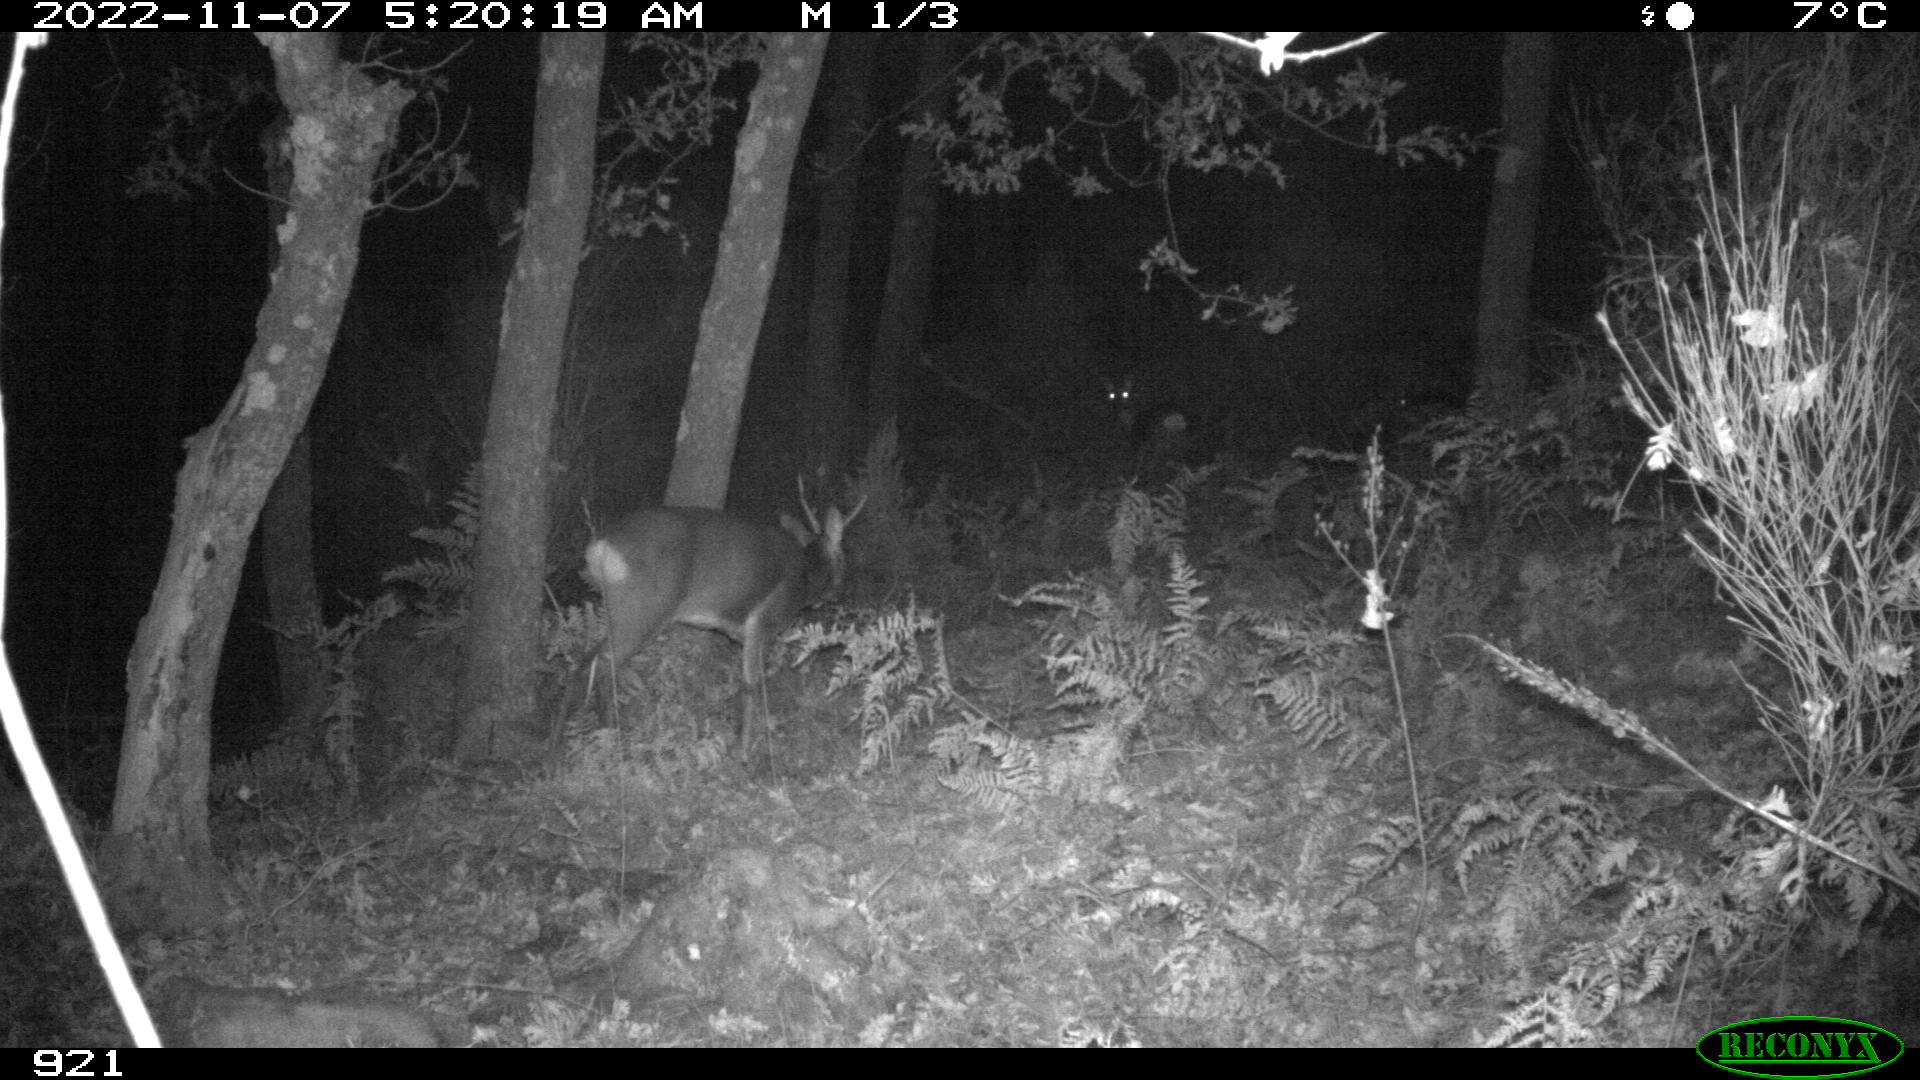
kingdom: Animalia
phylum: Chordata
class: Mammalia
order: Artiodactyla
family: Cervidae
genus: Capreolus
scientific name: Capreolus capreolus
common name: Western roe deer
